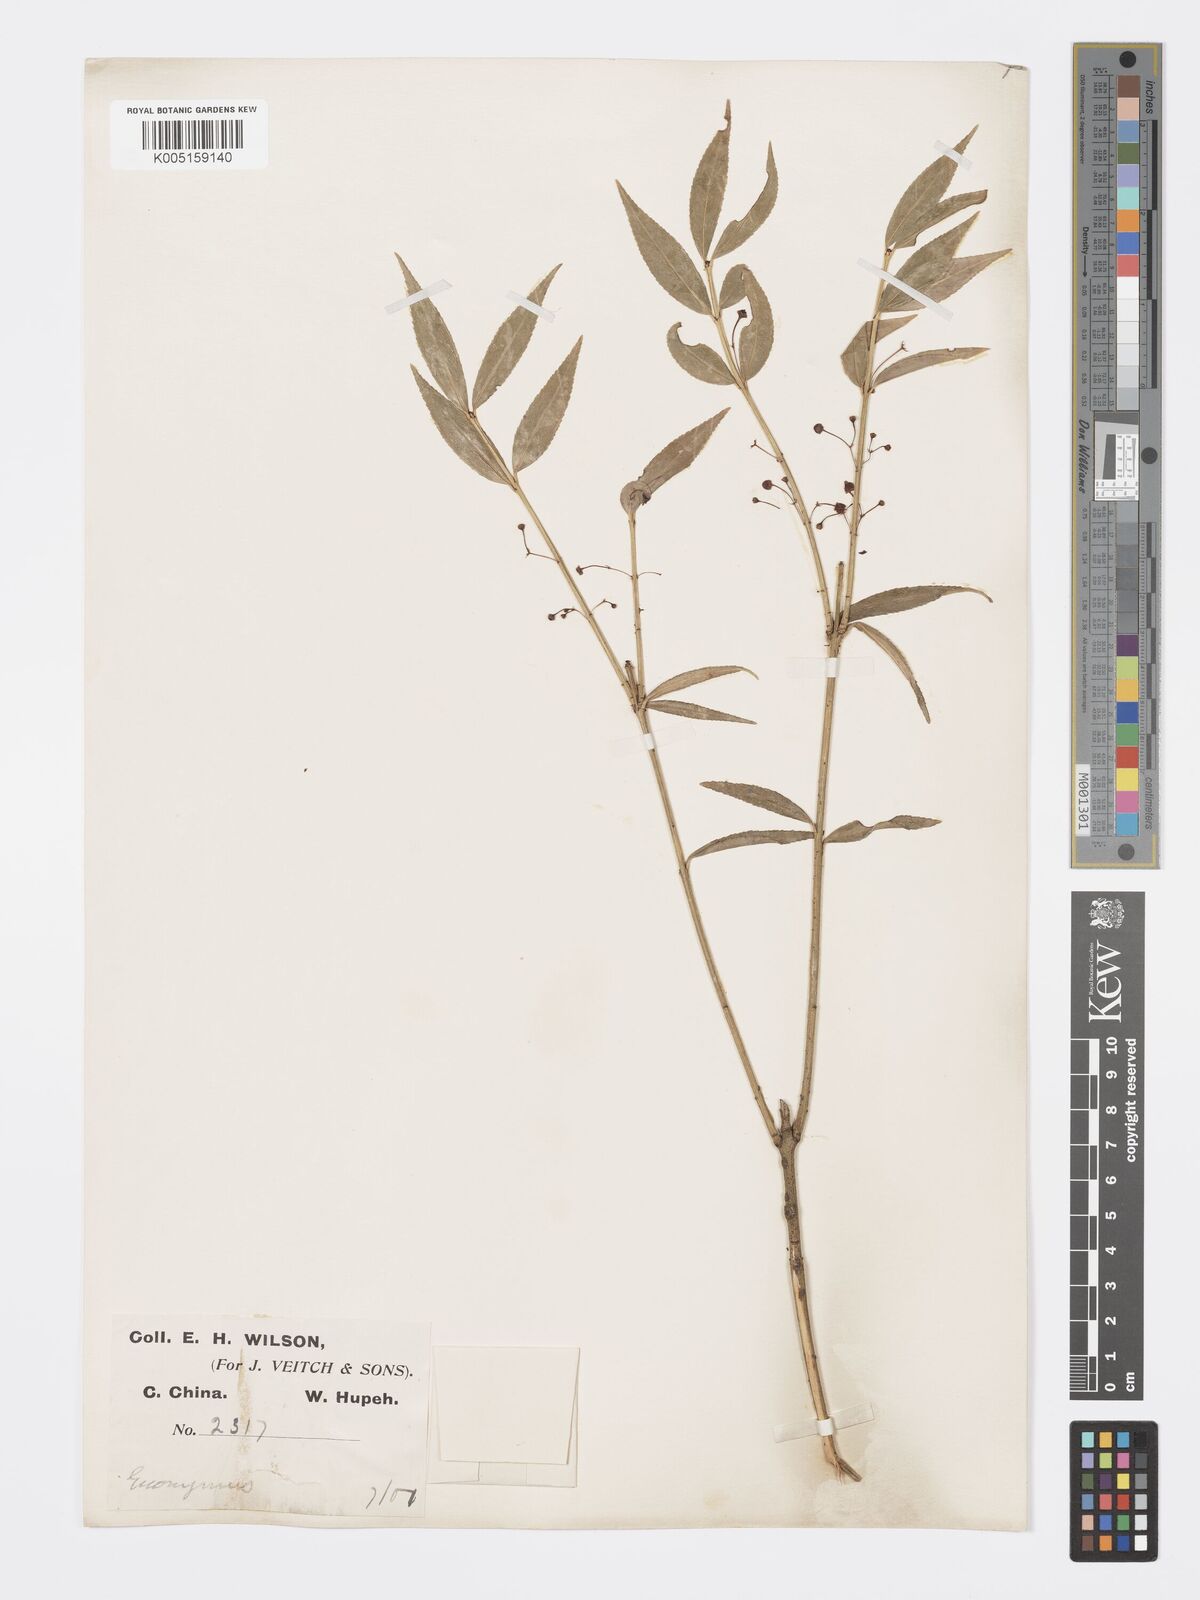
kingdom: Plantae
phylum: Tracheophyta
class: Magnoliopsida
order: Celastrales
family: Celastraceae
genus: Euonymus
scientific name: Euonymus gracillimus
